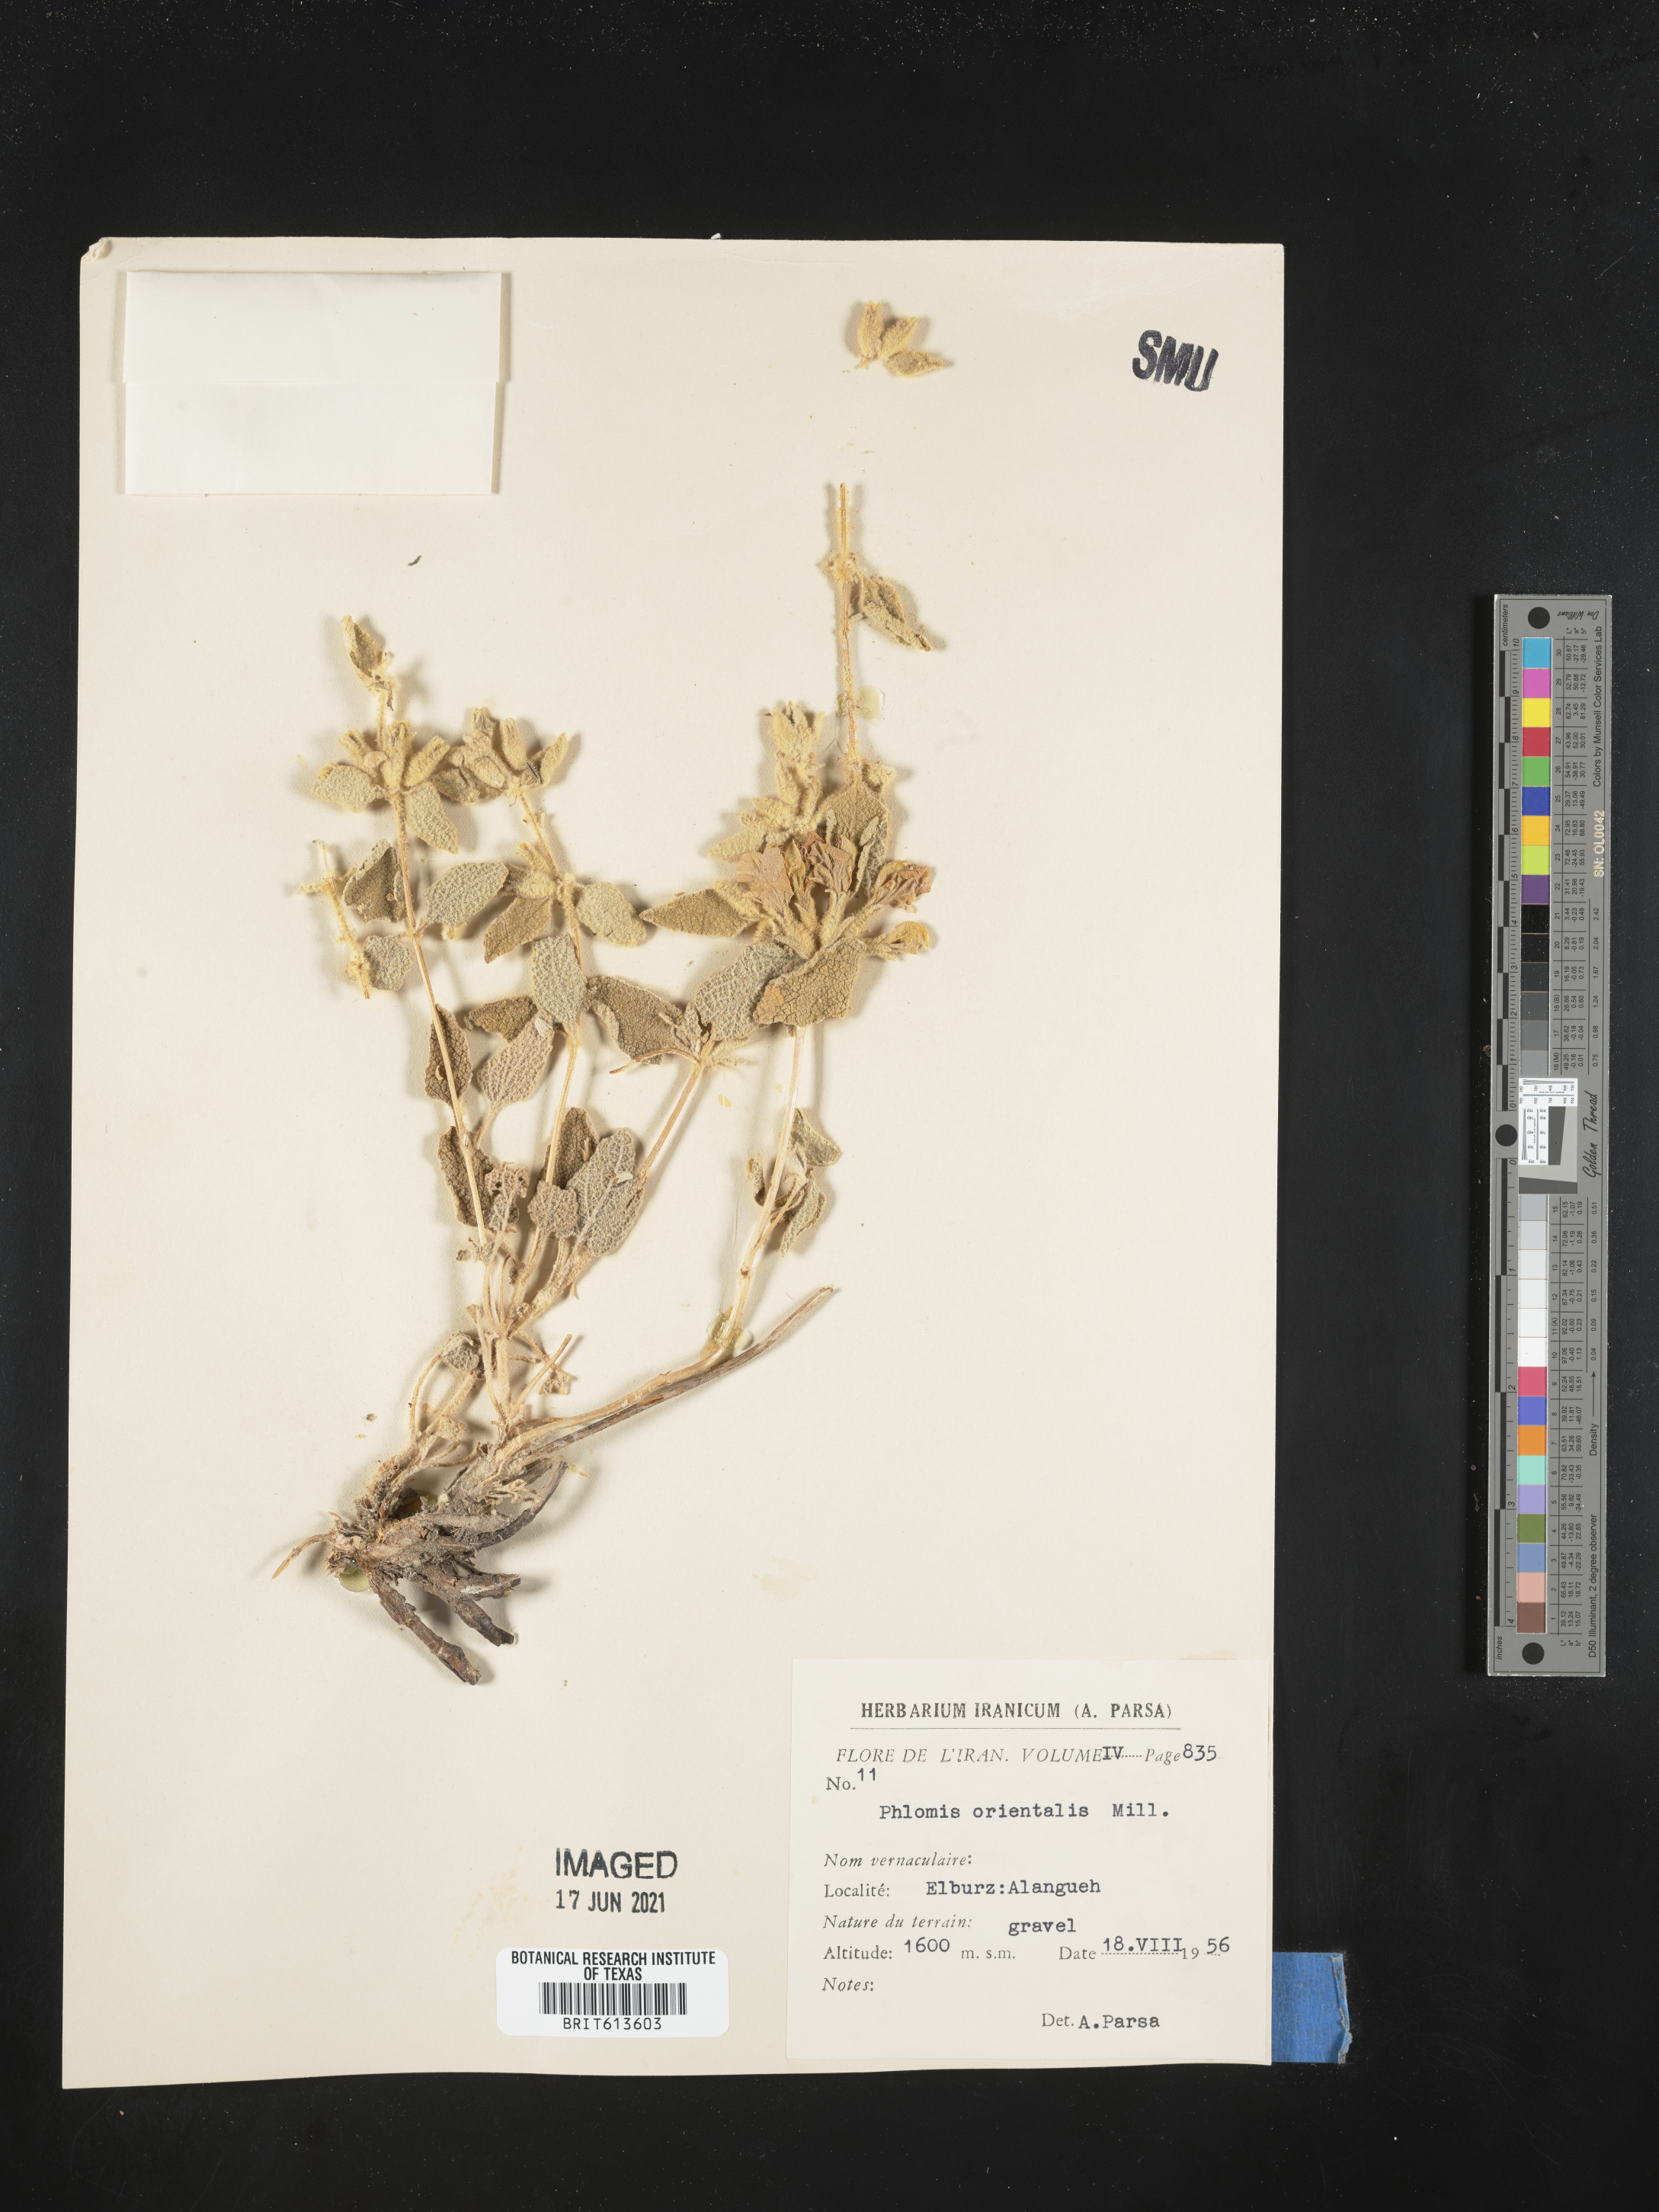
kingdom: Plantae
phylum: Tracheophyta
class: Magnoliopsida
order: Lamiales
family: Lamiaceae
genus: Phlomis
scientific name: Phlomis orientalis
